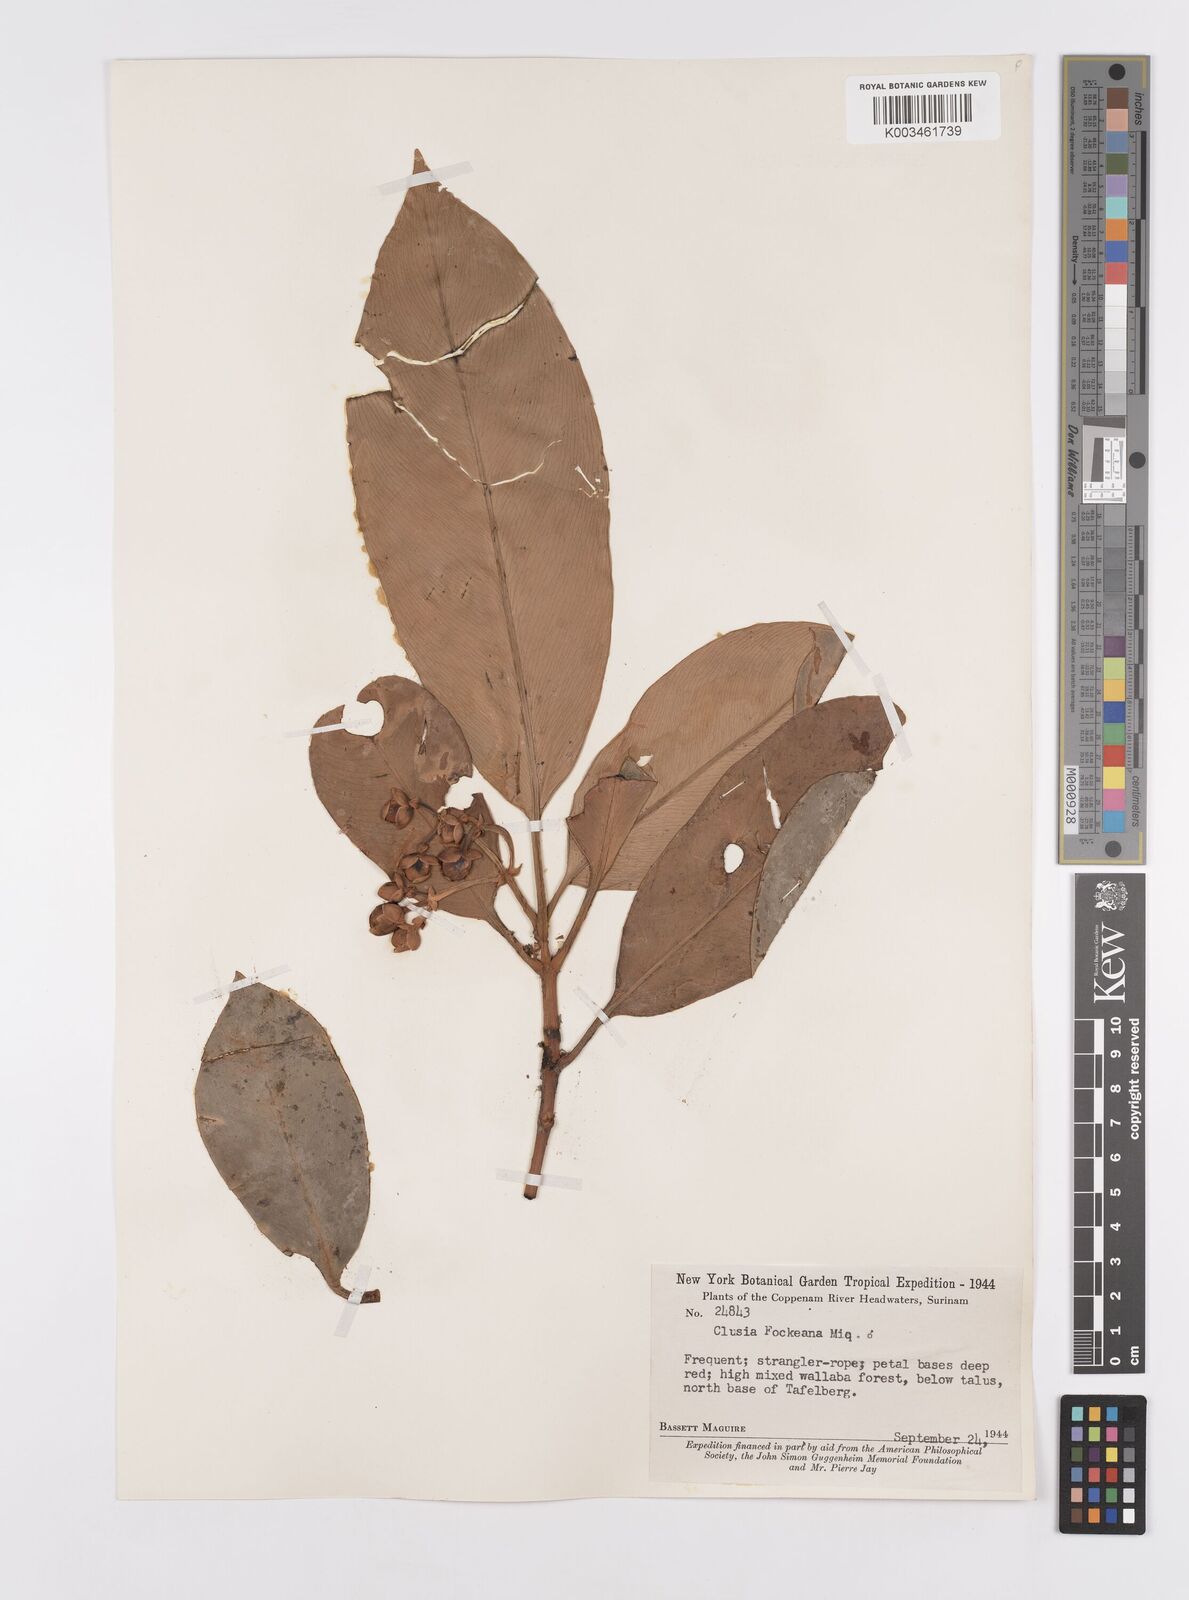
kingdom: Plantae
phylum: Tracheophyta
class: Magnoliopsida
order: Malpighiales
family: Clusiaceae
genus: Clusia
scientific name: Clusia fockeana
